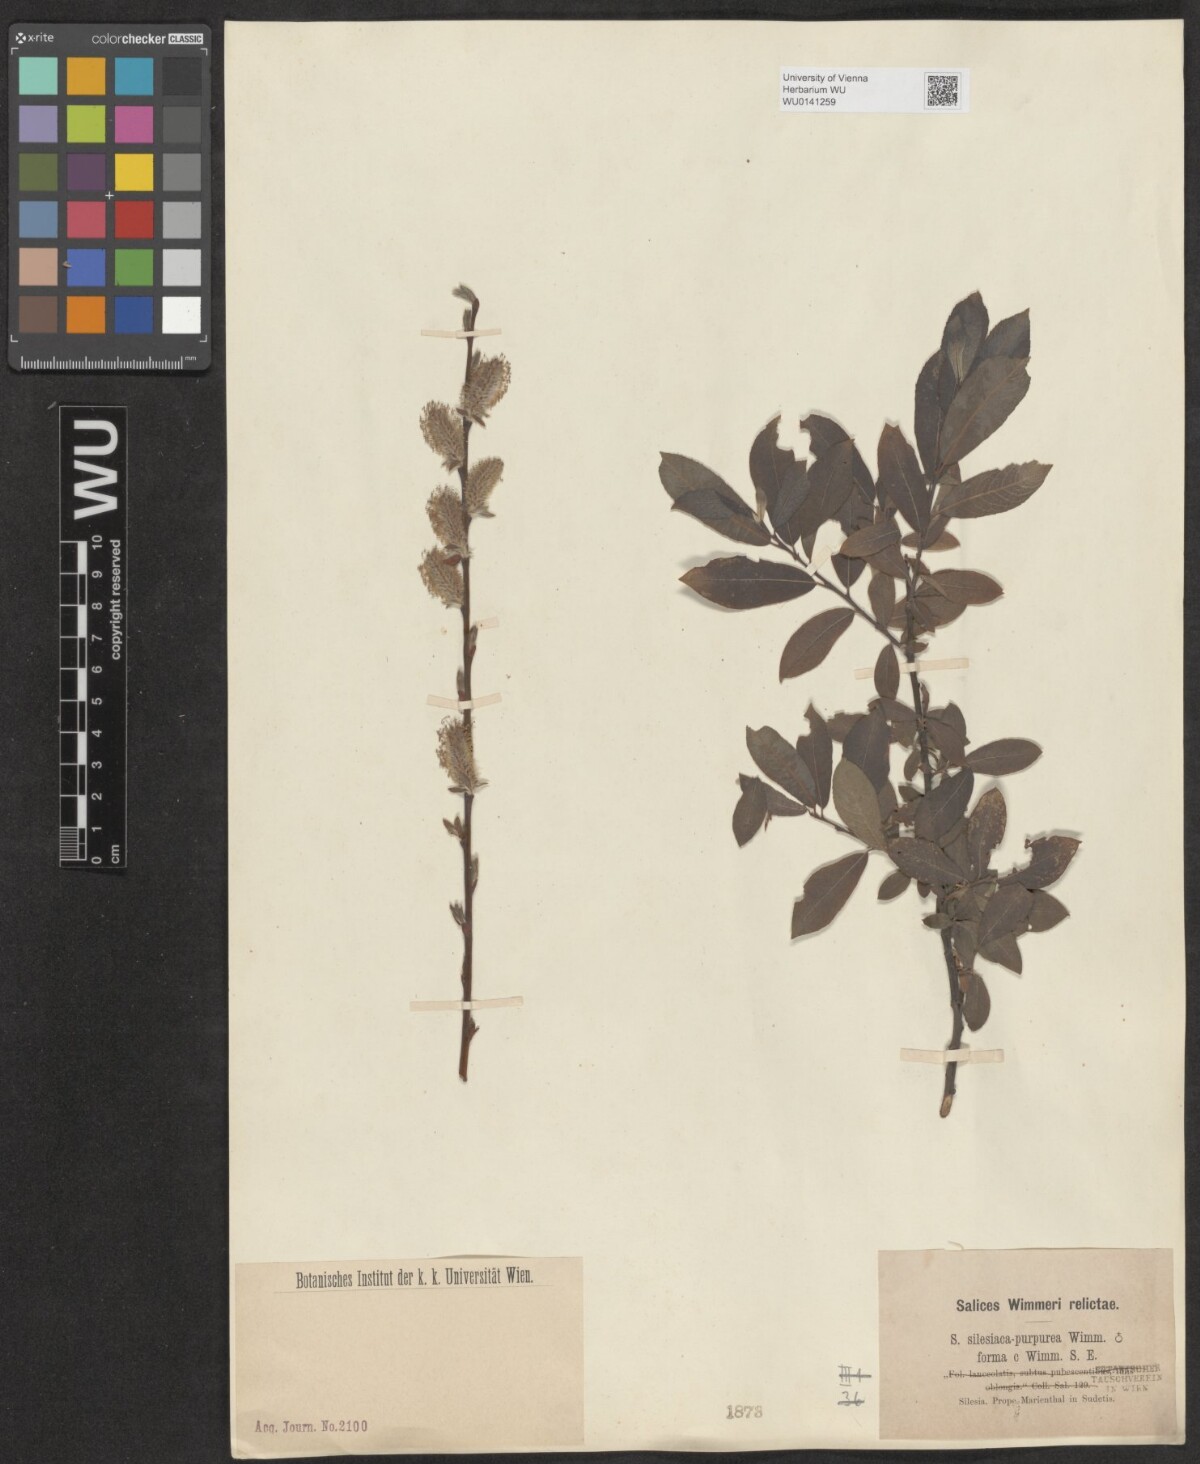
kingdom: Plantae
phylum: Tracheophyta
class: Magnoliopsida
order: Malpighiales
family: Salicaceae
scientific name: Salicaceae
